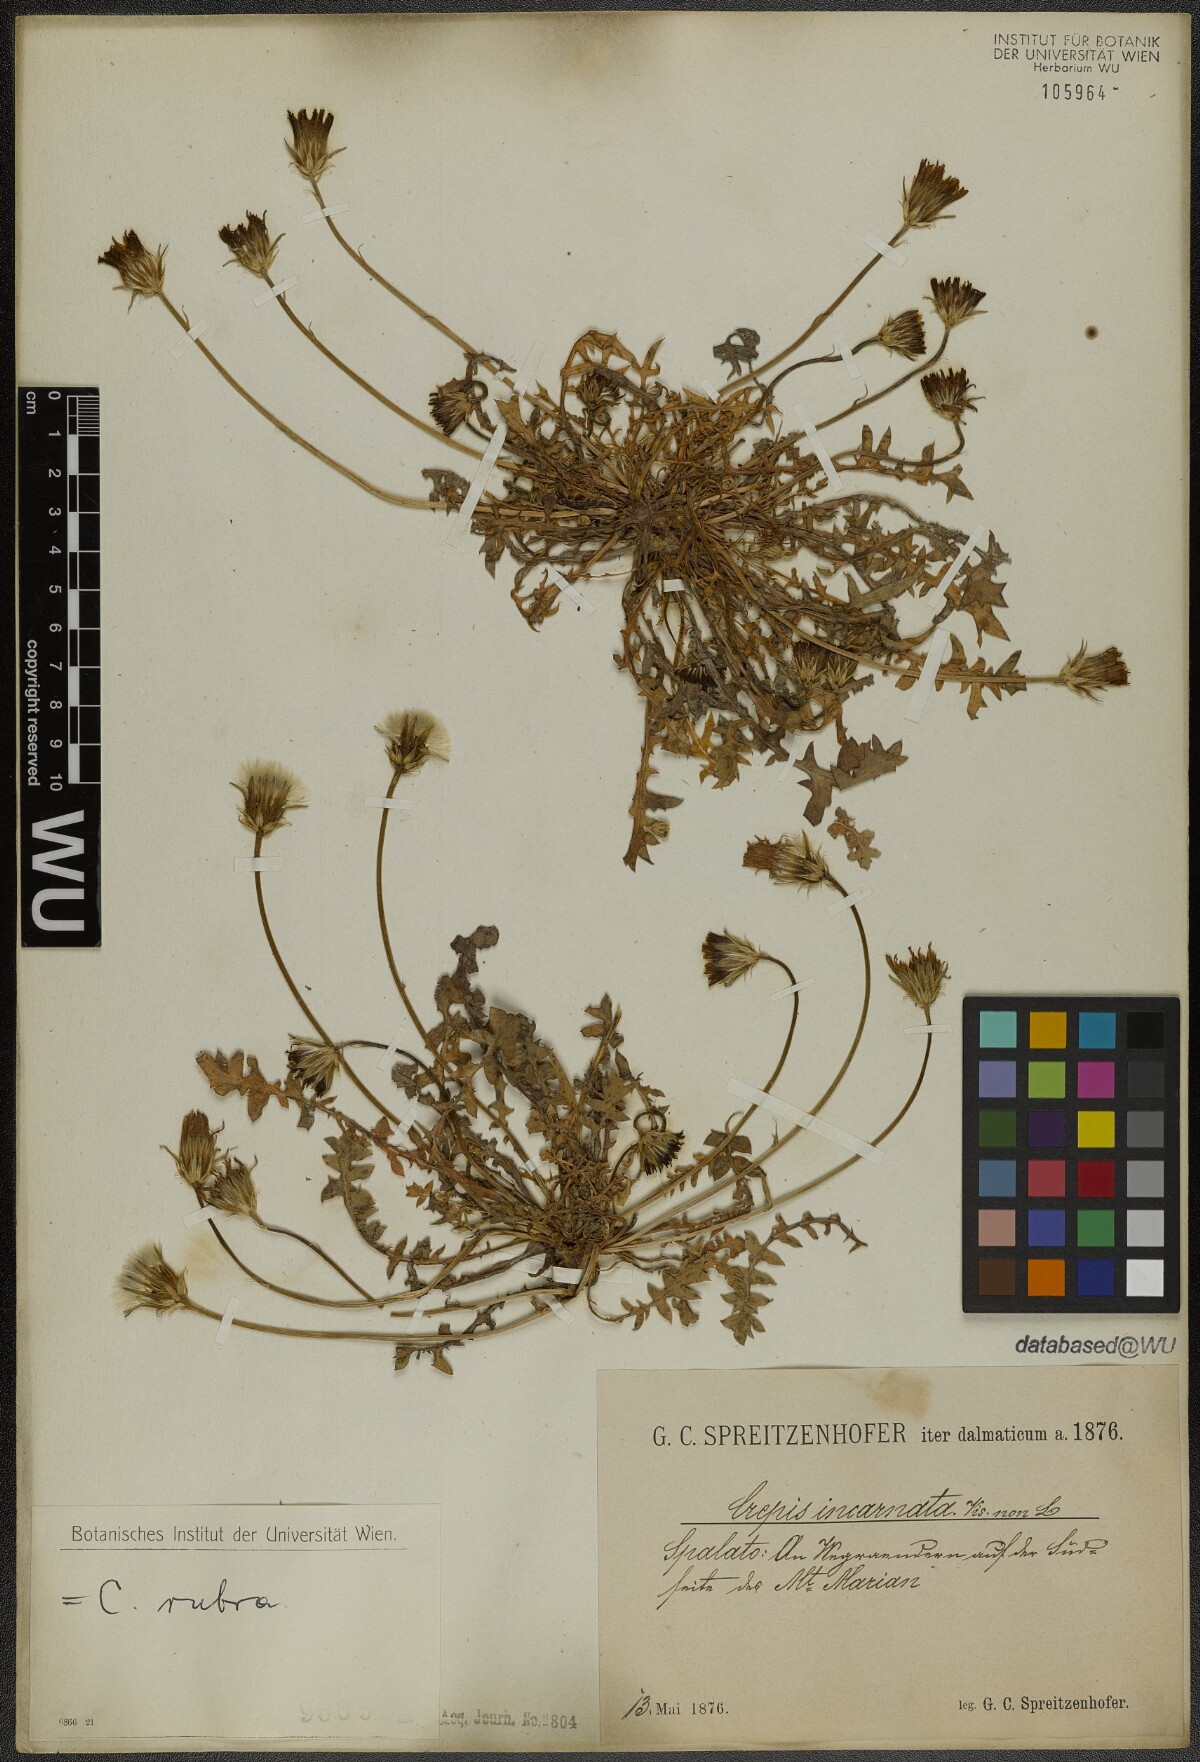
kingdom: Plantae
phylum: Tracheophyta
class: Magnoliopsida
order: Asterales
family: Asteraceae
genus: Crepis
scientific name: Crepis rubra
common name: Pink hawk's-beard
